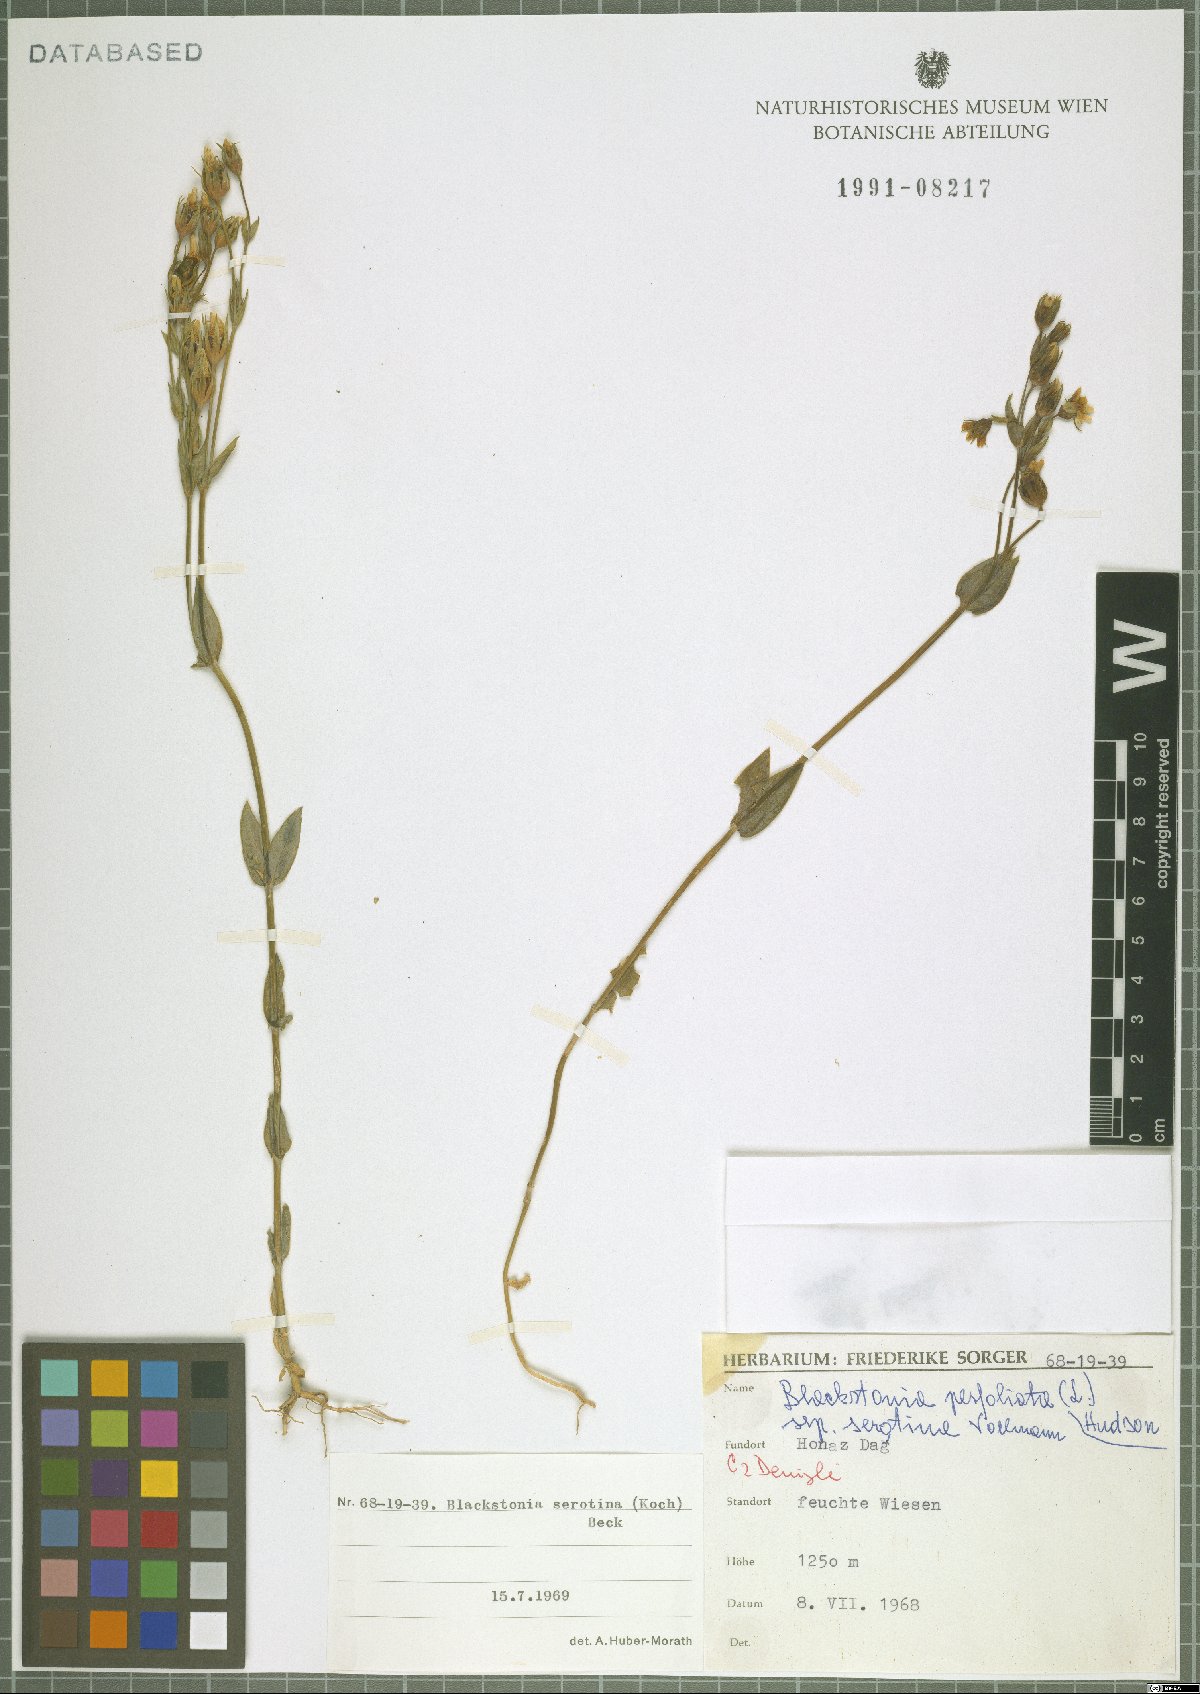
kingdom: Plantae
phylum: Tracheophyta
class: Magnoliopsida
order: Gentianales
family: Gentianaceae
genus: Blackstonia
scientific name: Blackstonia acuminata
